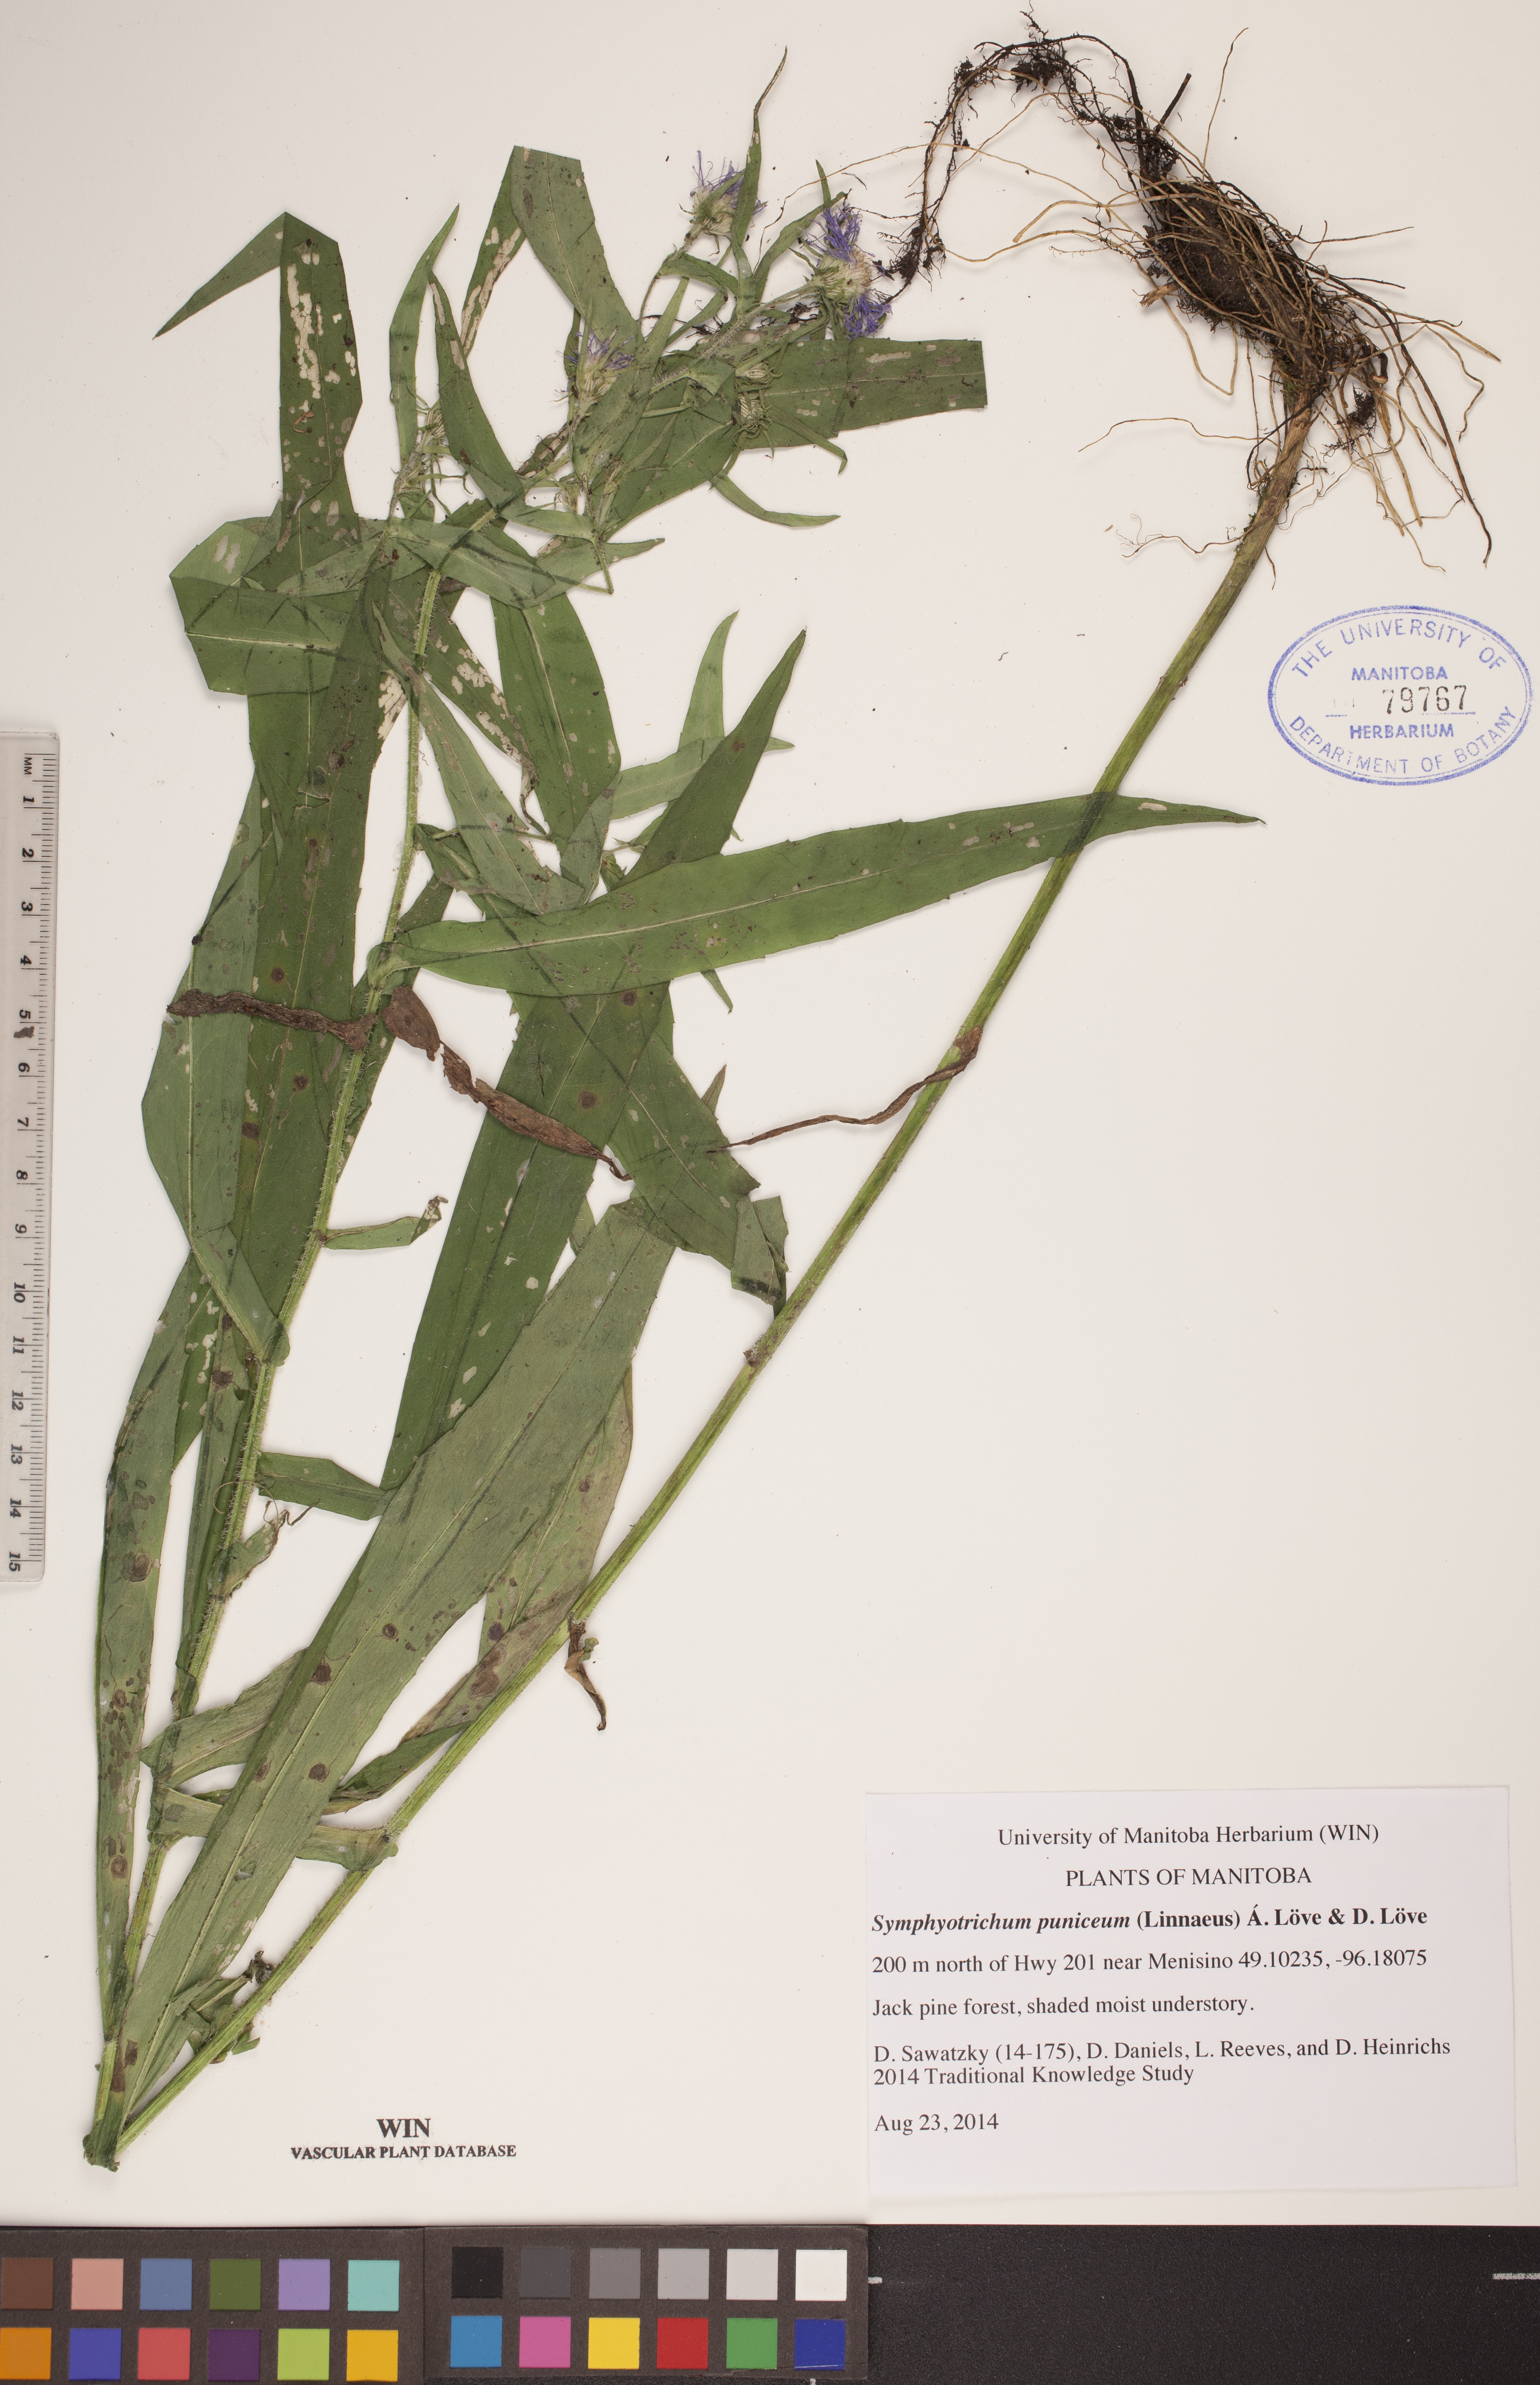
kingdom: Plantae
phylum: Tracheophyta
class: Magnoliopsida
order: Asterales
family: Asteraceae
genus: Symphyotrichum
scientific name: Symphyotrichum puniceum
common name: Bog aster
